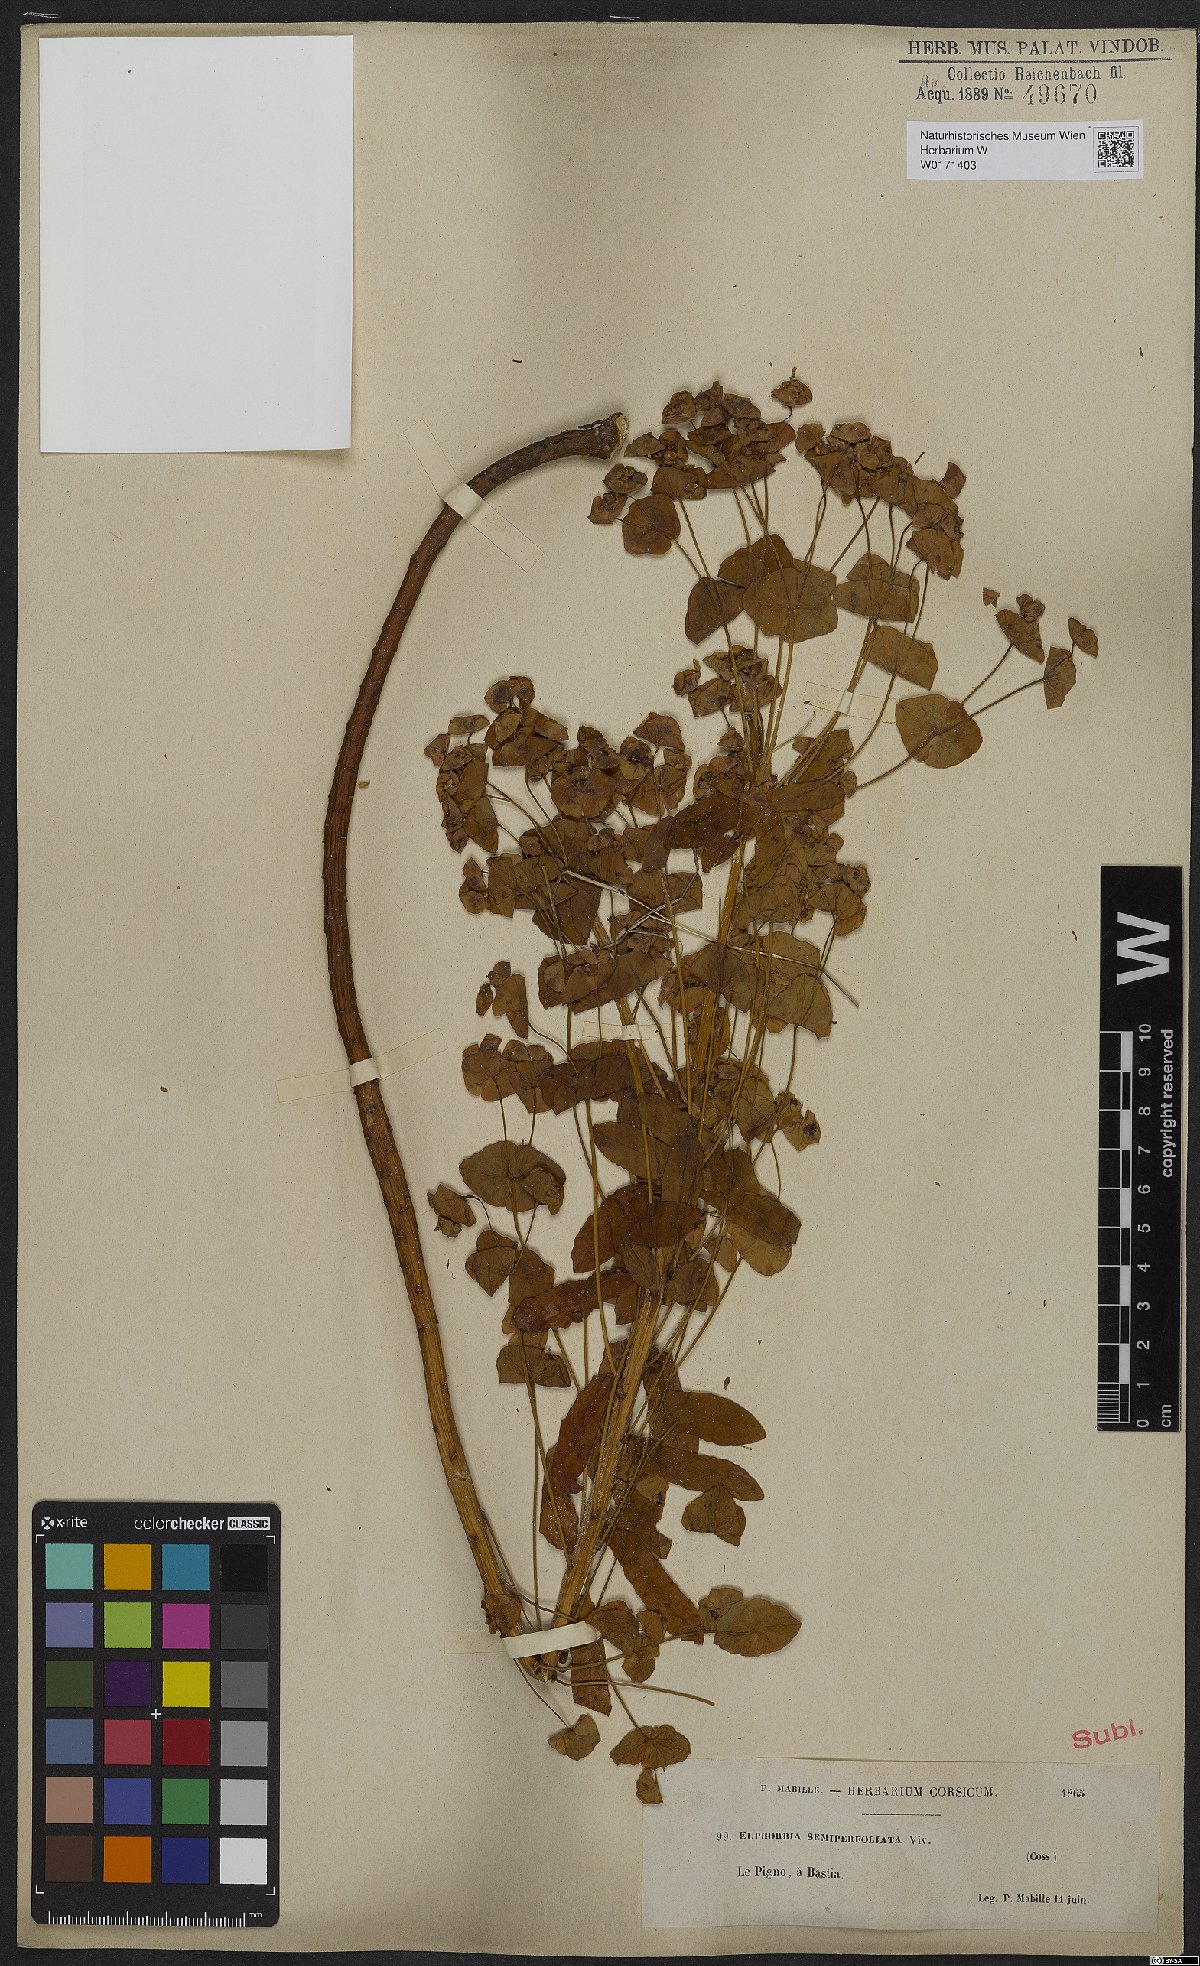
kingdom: Plantae
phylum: Tracheophyta
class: Magnoliopsida
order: Malpighiales
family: Euphorbiaceae
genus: Euphorbia
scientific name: Euphorbia semiperfoliata
